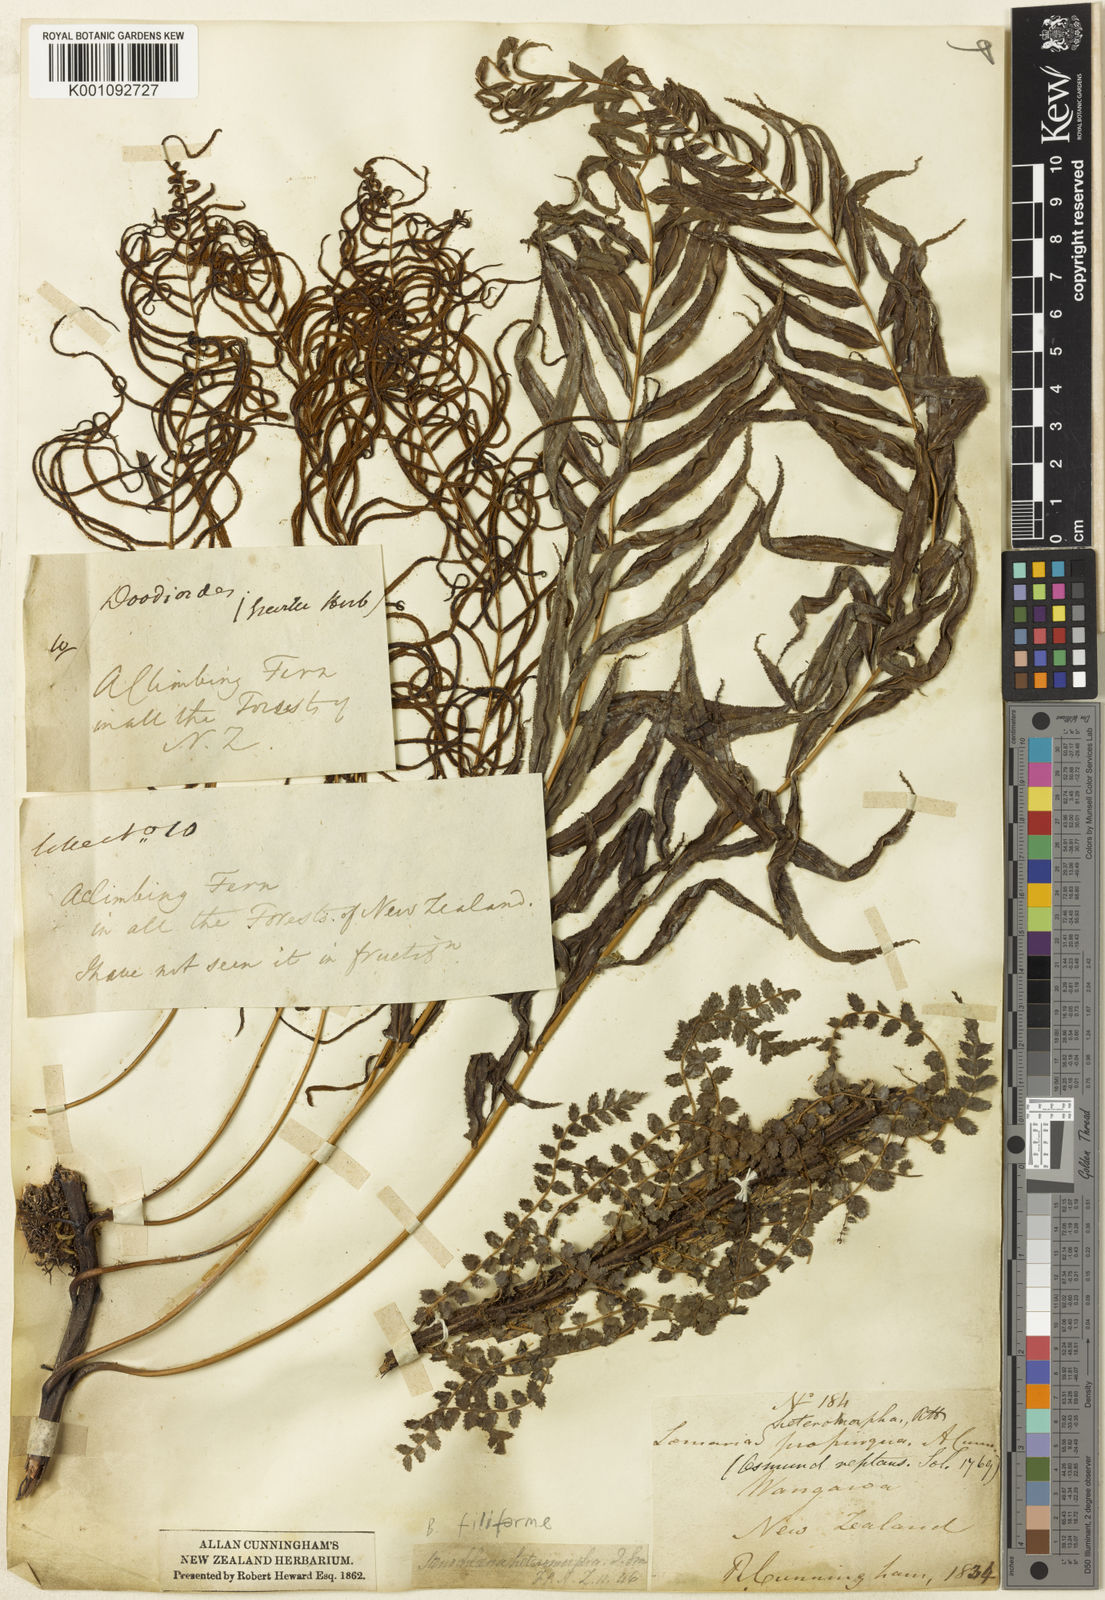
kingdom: Plantae
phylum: Tracheophyta
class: Polypodiopsida
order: Polypodiales
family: Blechnaceae
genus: Icarus
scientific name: Icarus filiformis
